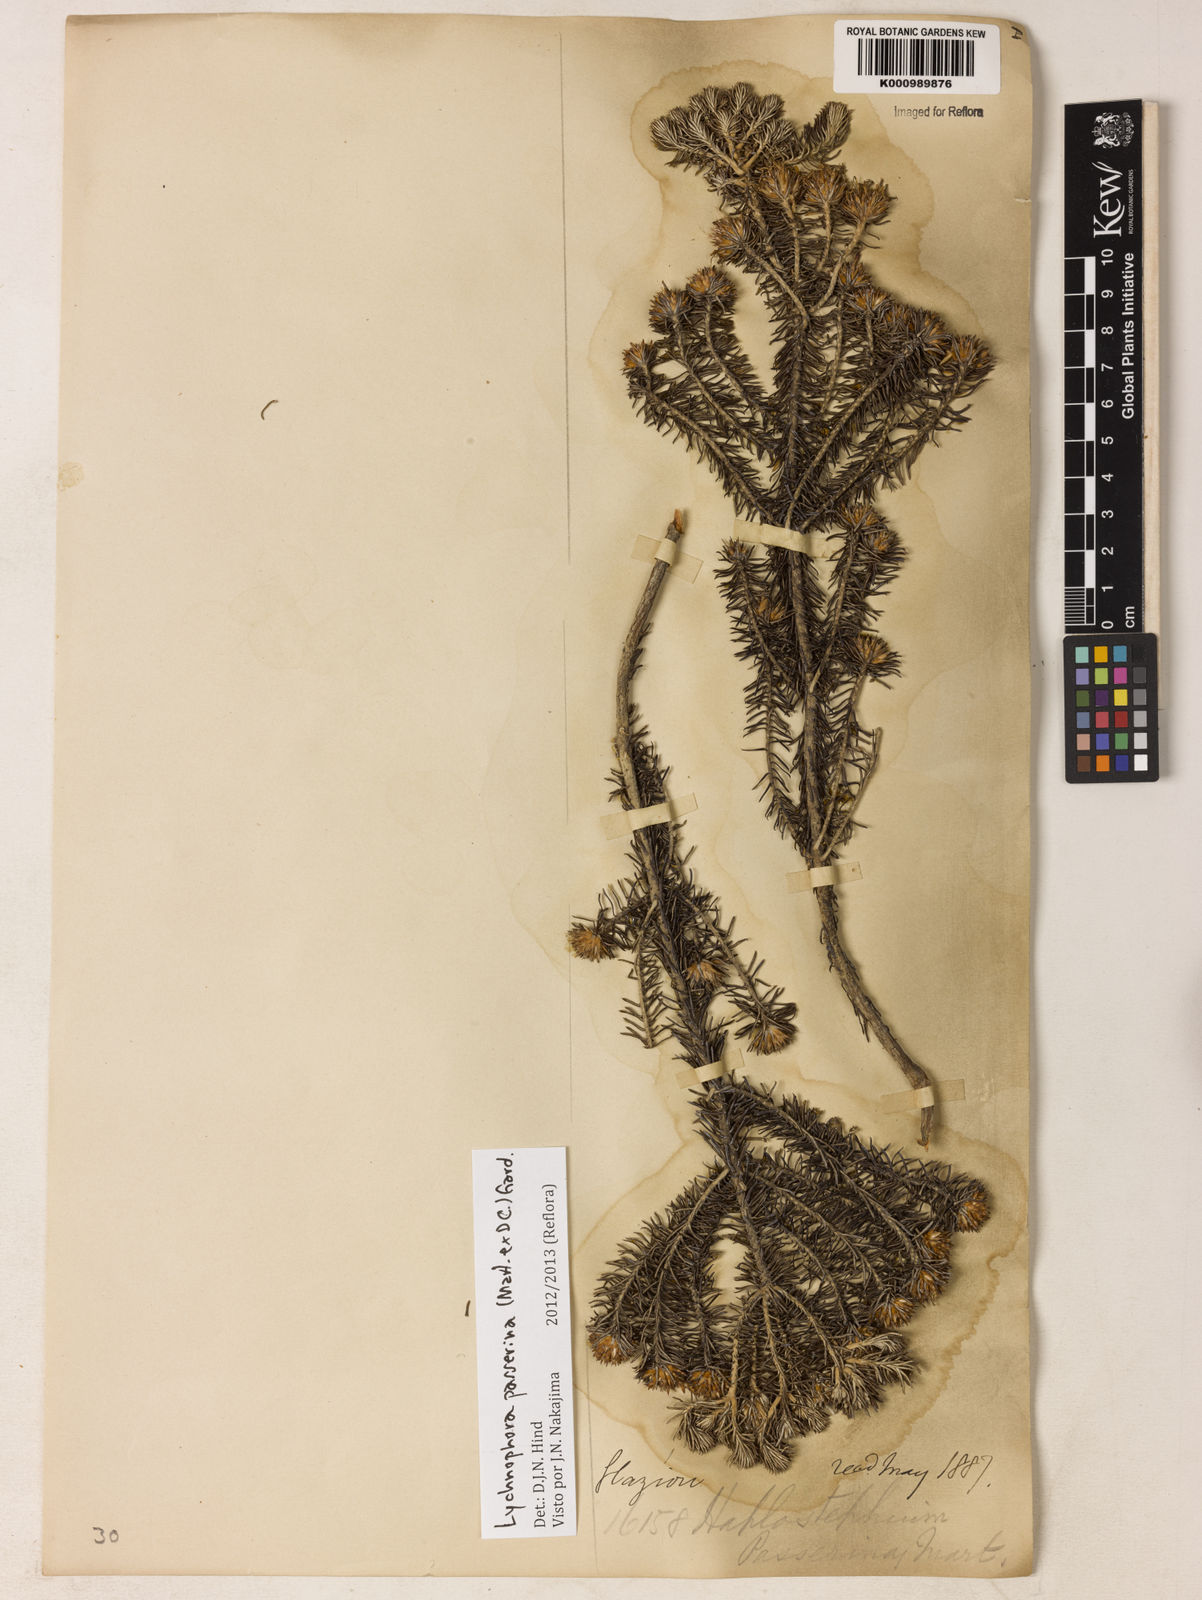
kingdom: Plantae
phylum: Tracheophyta
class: Magnoliopsida
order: Asterales
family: Asteraceae
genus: Lychnophora
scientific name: Lychnophora passerina
